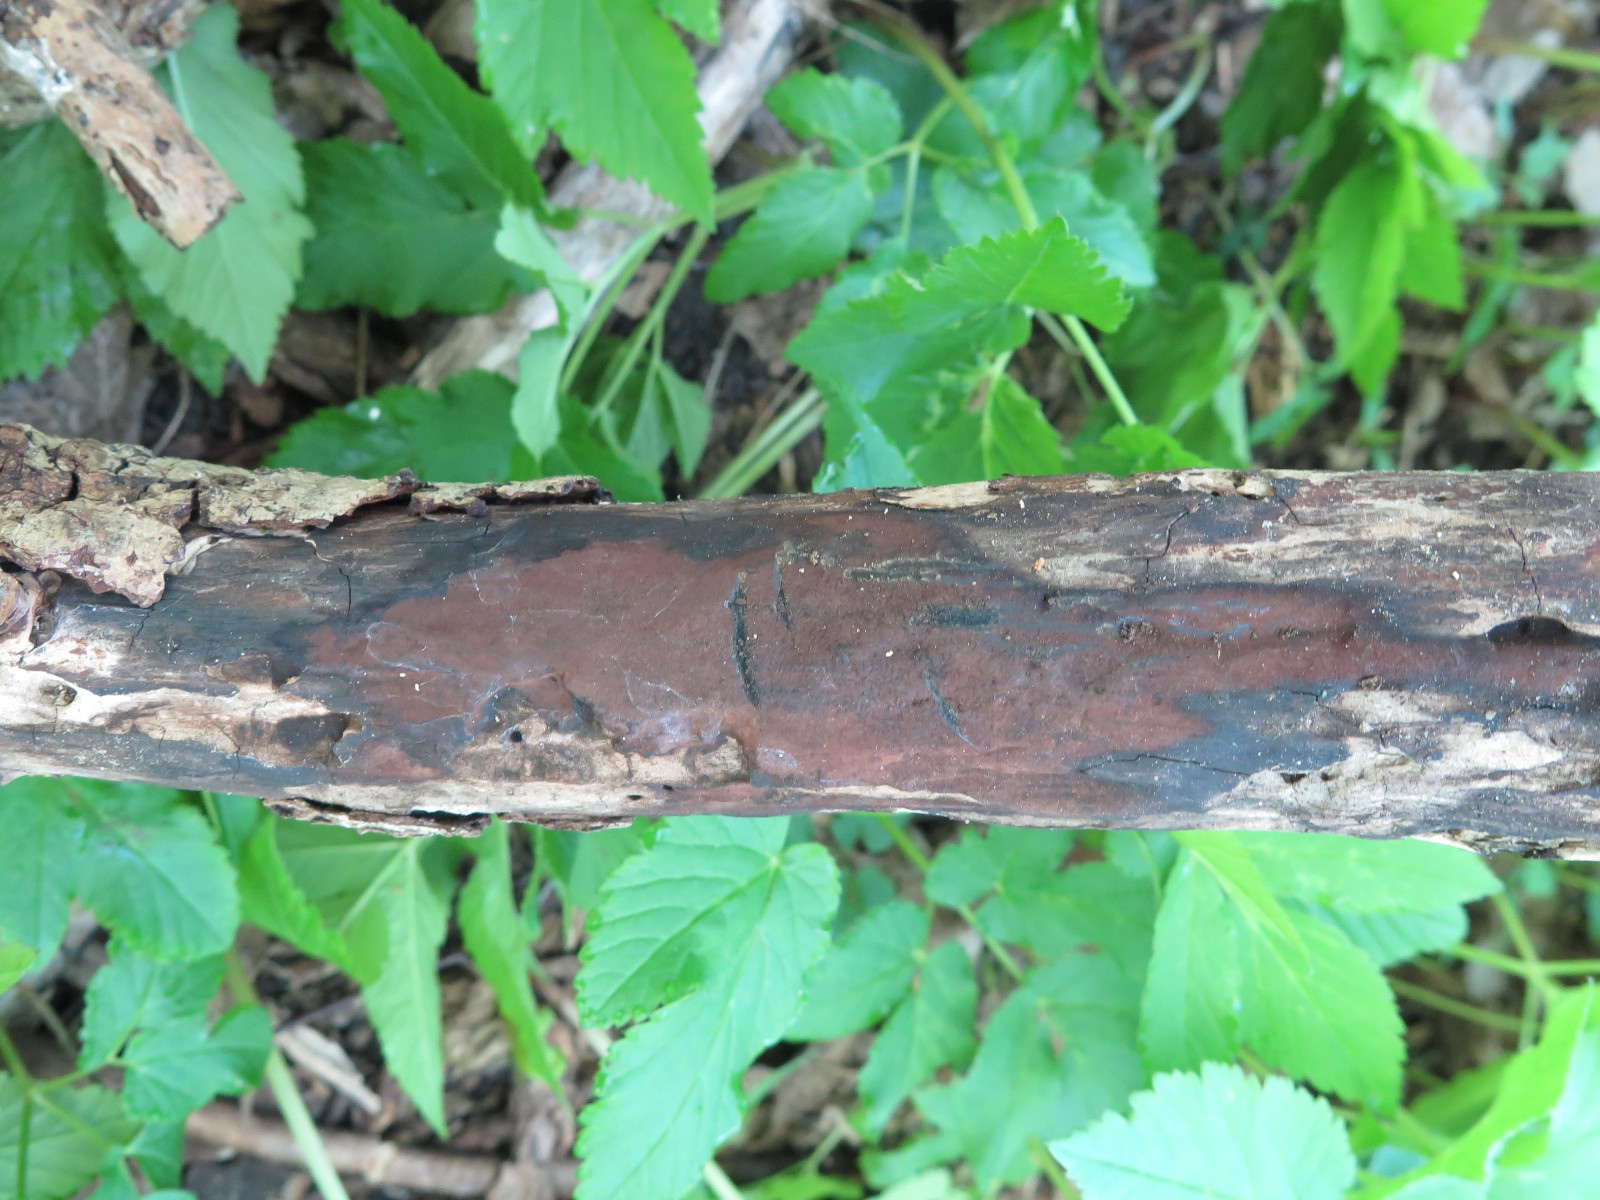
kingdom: Fungi
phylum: Ascomycota
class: Sordariomycetes
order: Xylariales
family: Hypoxylaceae
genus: Hypoxylon
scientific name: Hypoxylon macrocarpum
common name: skorpe-kulbær
